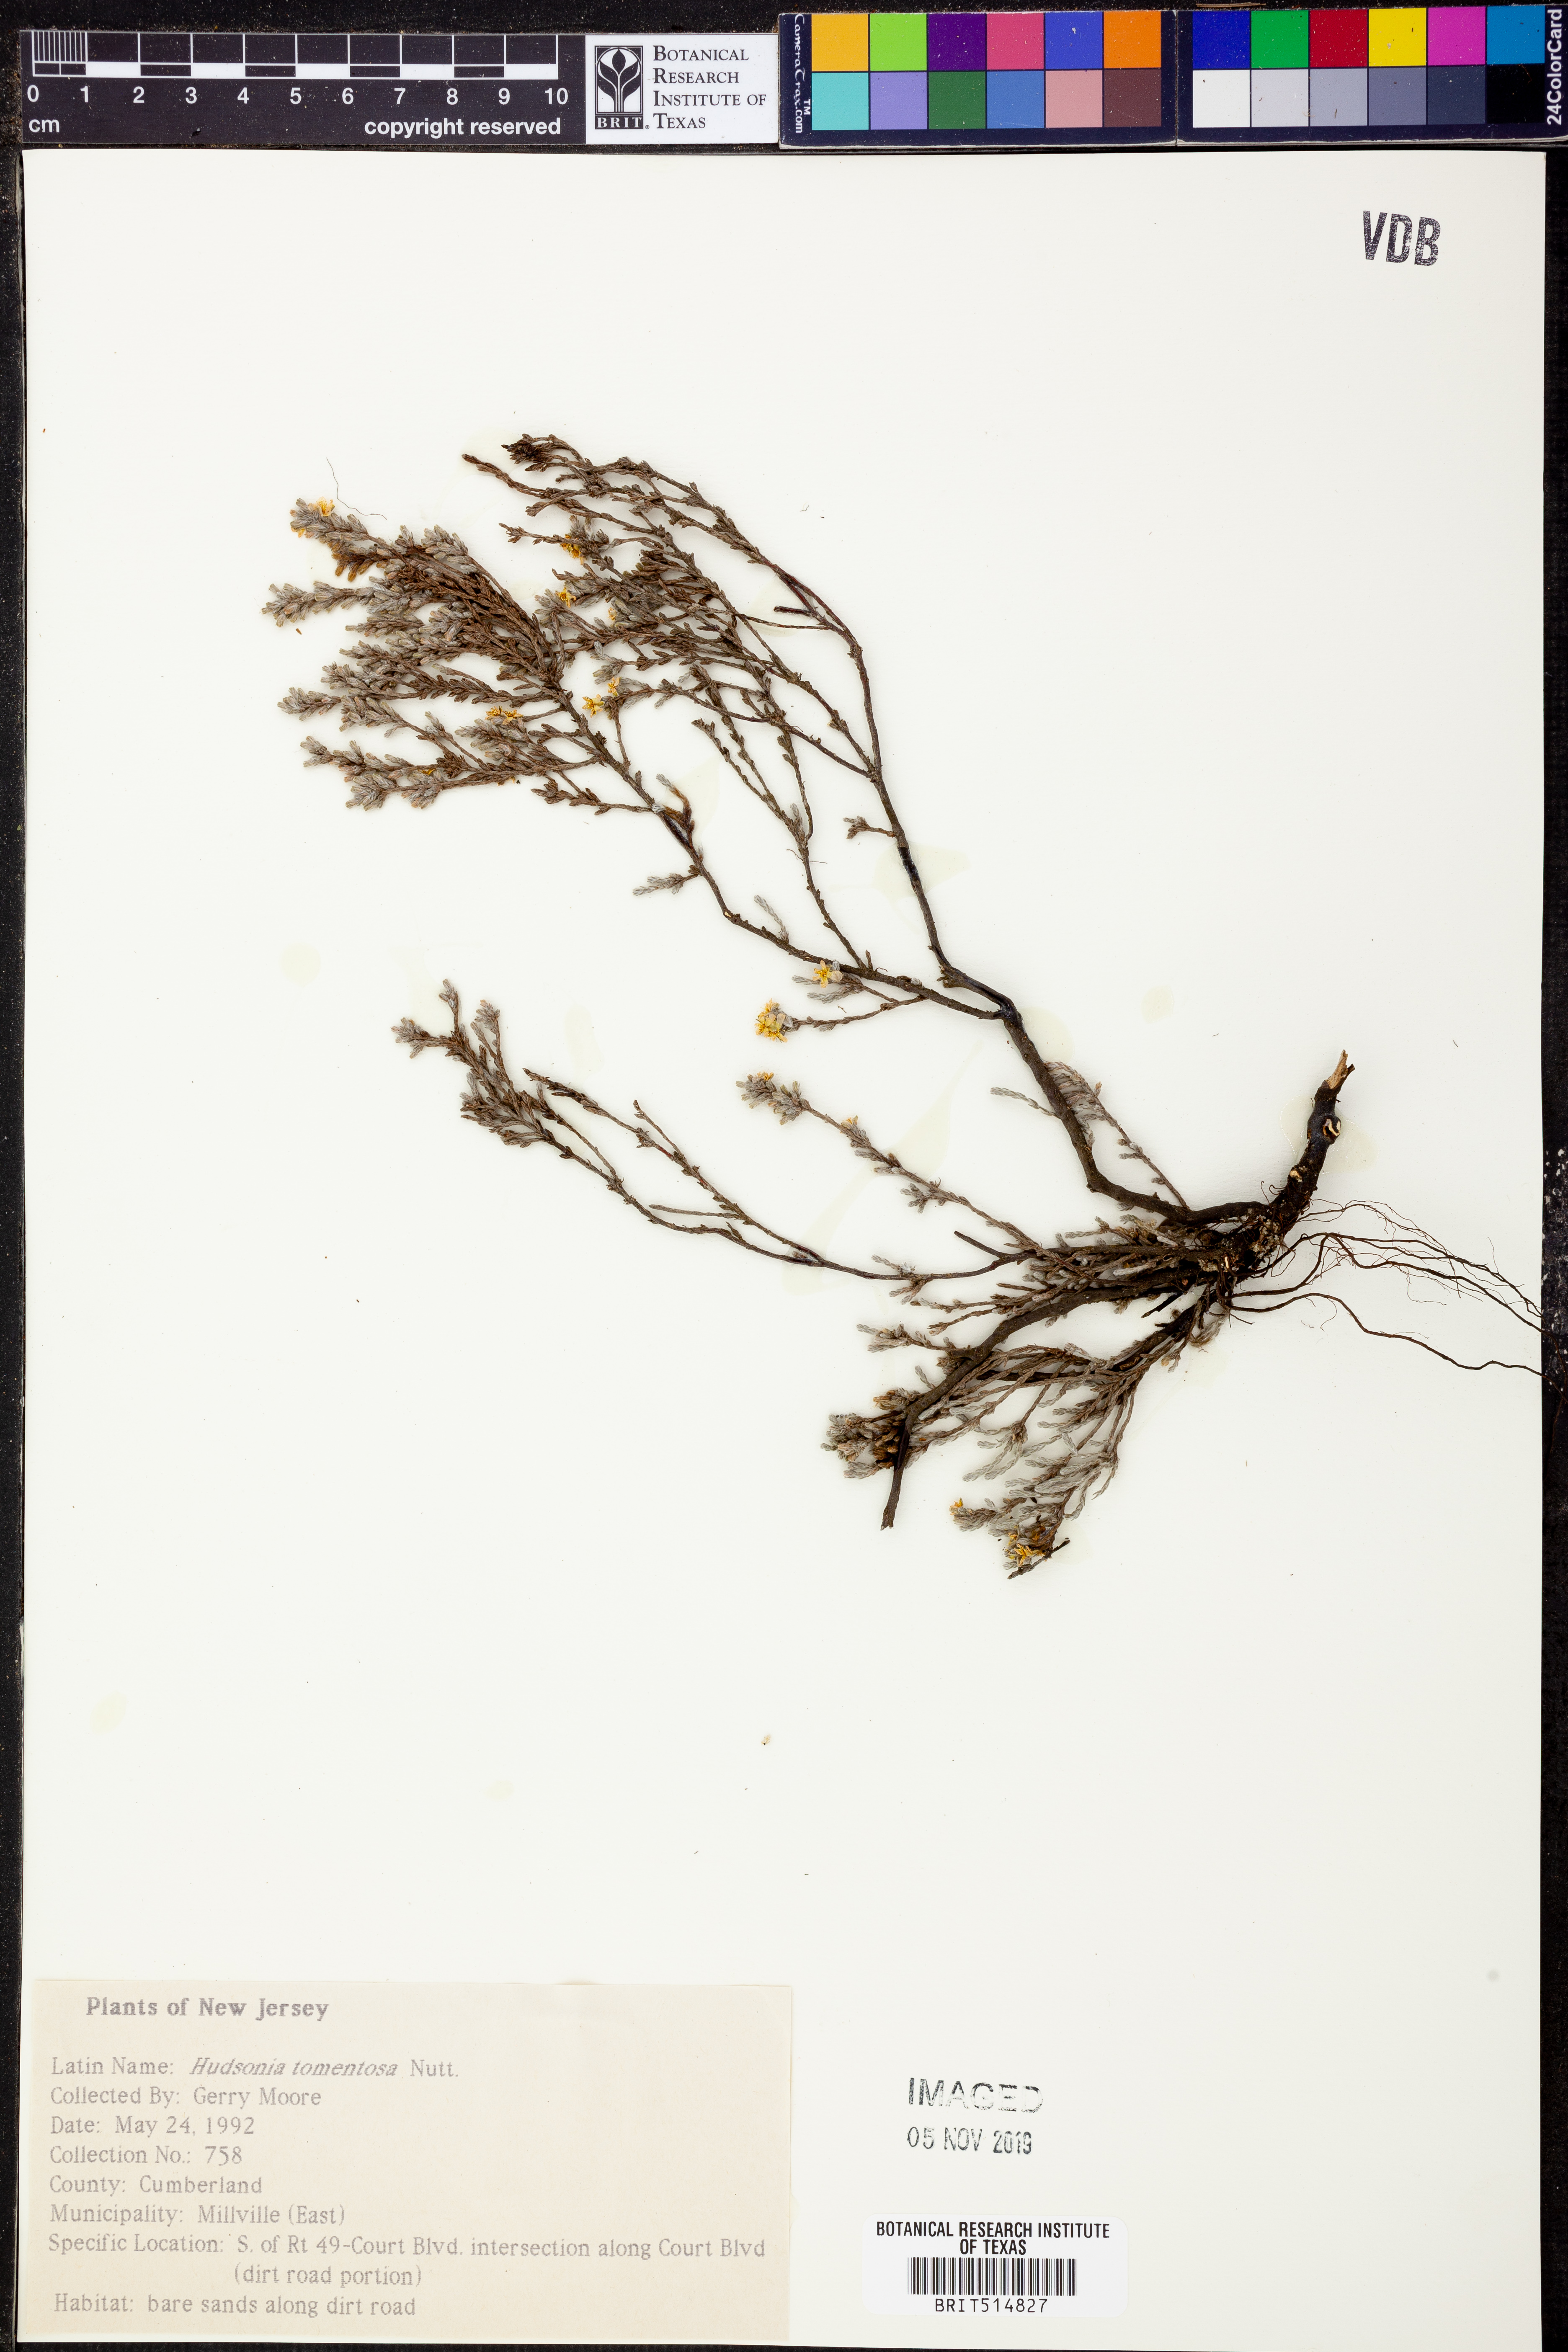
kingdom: Plantae
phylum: Tracheophyta
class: Magnoliopsida
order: Malvales
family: Cistaceae
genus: Hudsonia
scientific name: Hudsonia tomentosa
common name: Beach-heath
